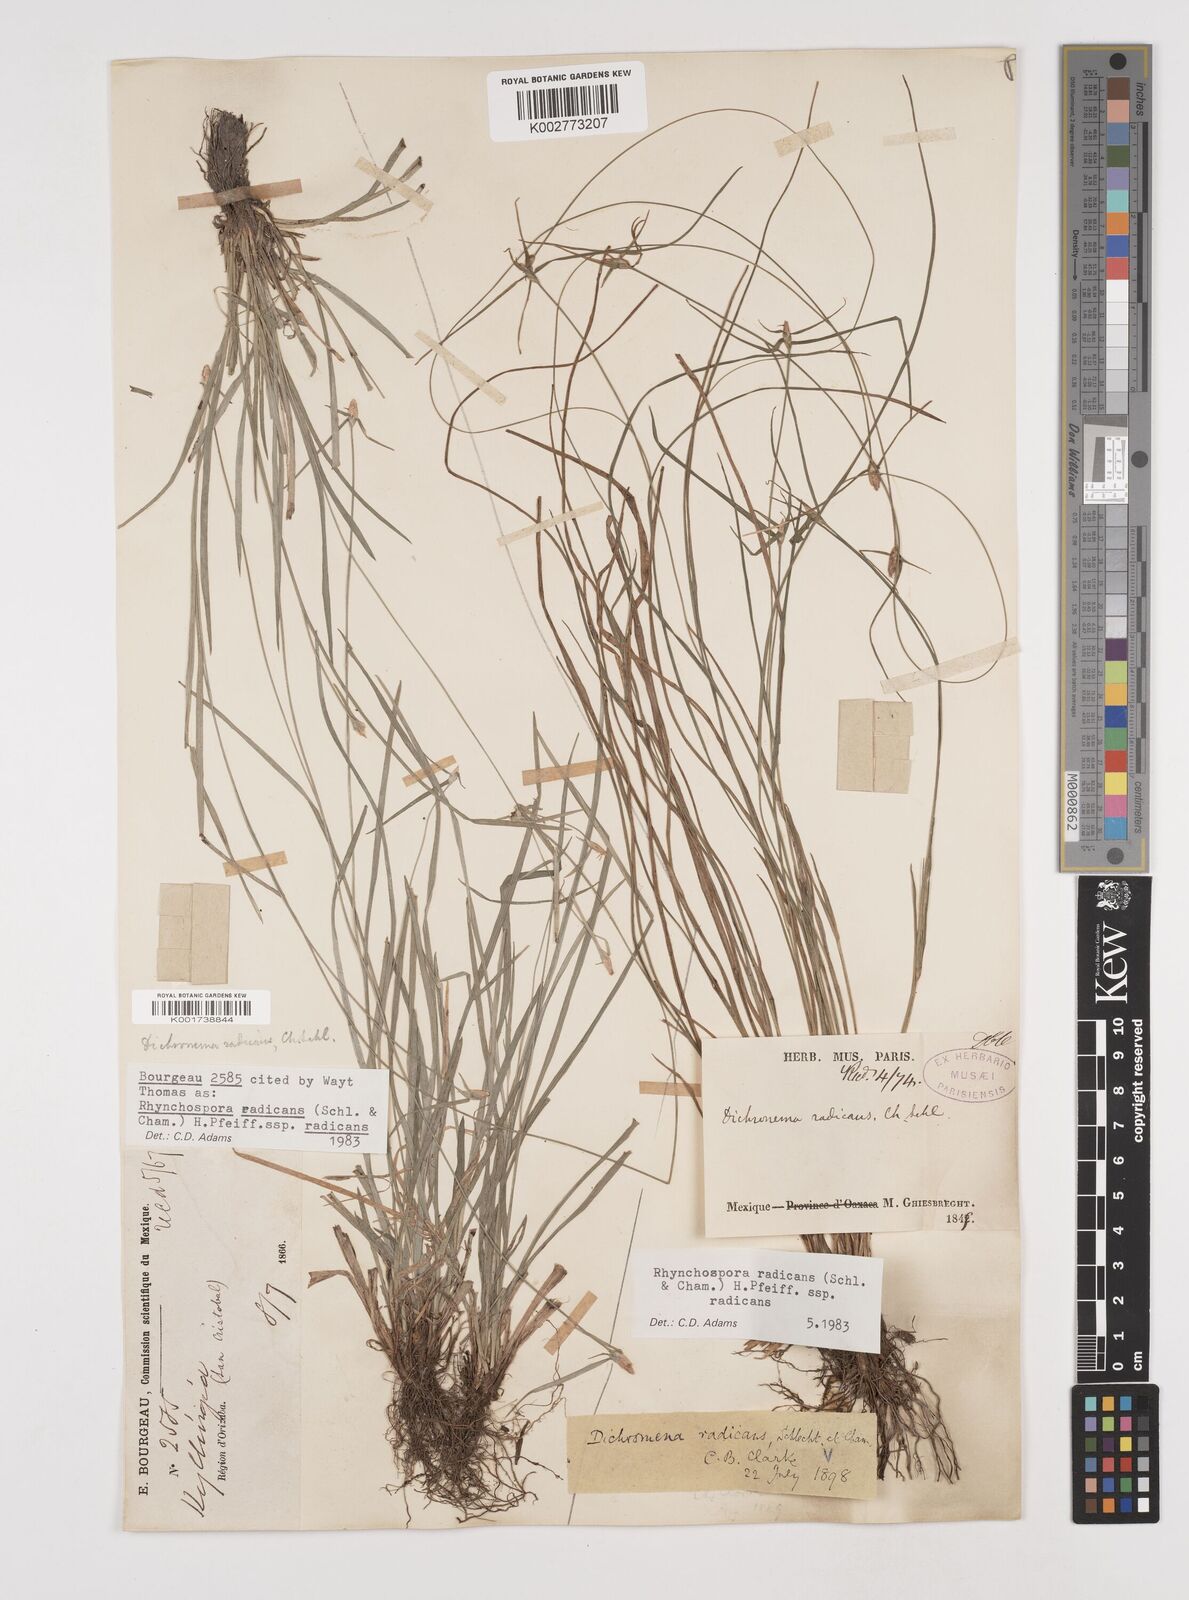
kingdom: Plantae
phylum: Tracheophyta
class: Liliopsida
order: Poales
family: Cyperaceae
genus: Rhynchospora
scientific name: Rhynchospora radicans
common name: Tropical whitetop
